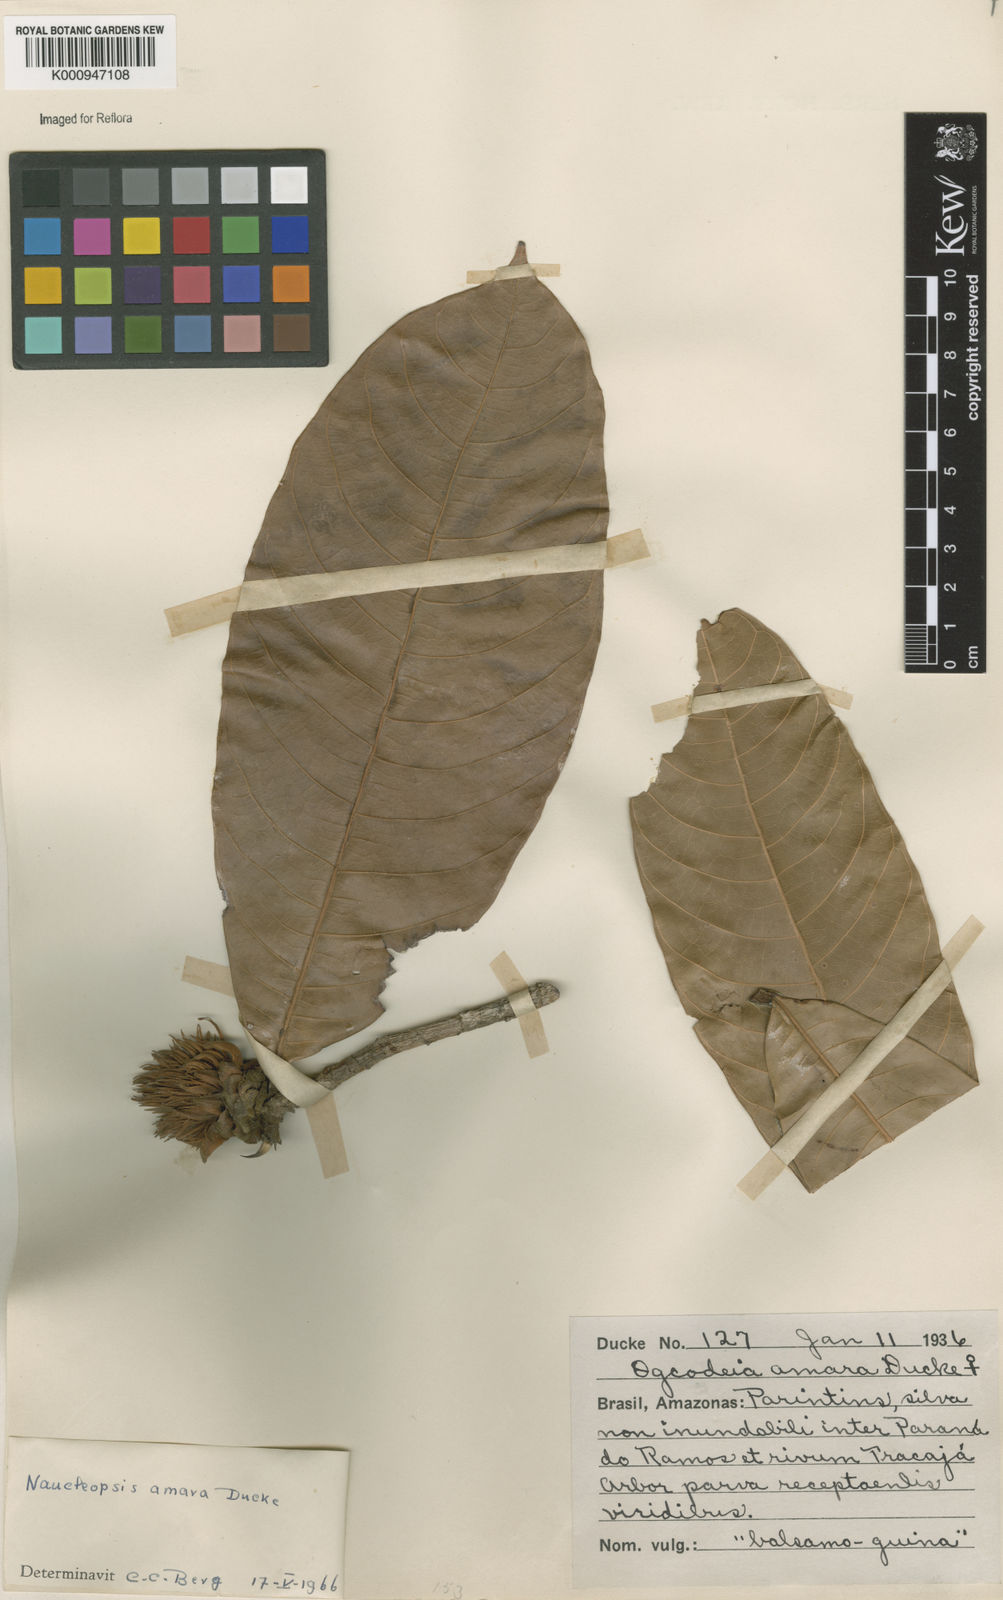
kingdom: Plantae
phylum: Tracheophyta
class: Magnoliopsida
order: Rosales
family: Moraceae
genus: Naucleopsis
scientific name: Naucleopsis ulei
